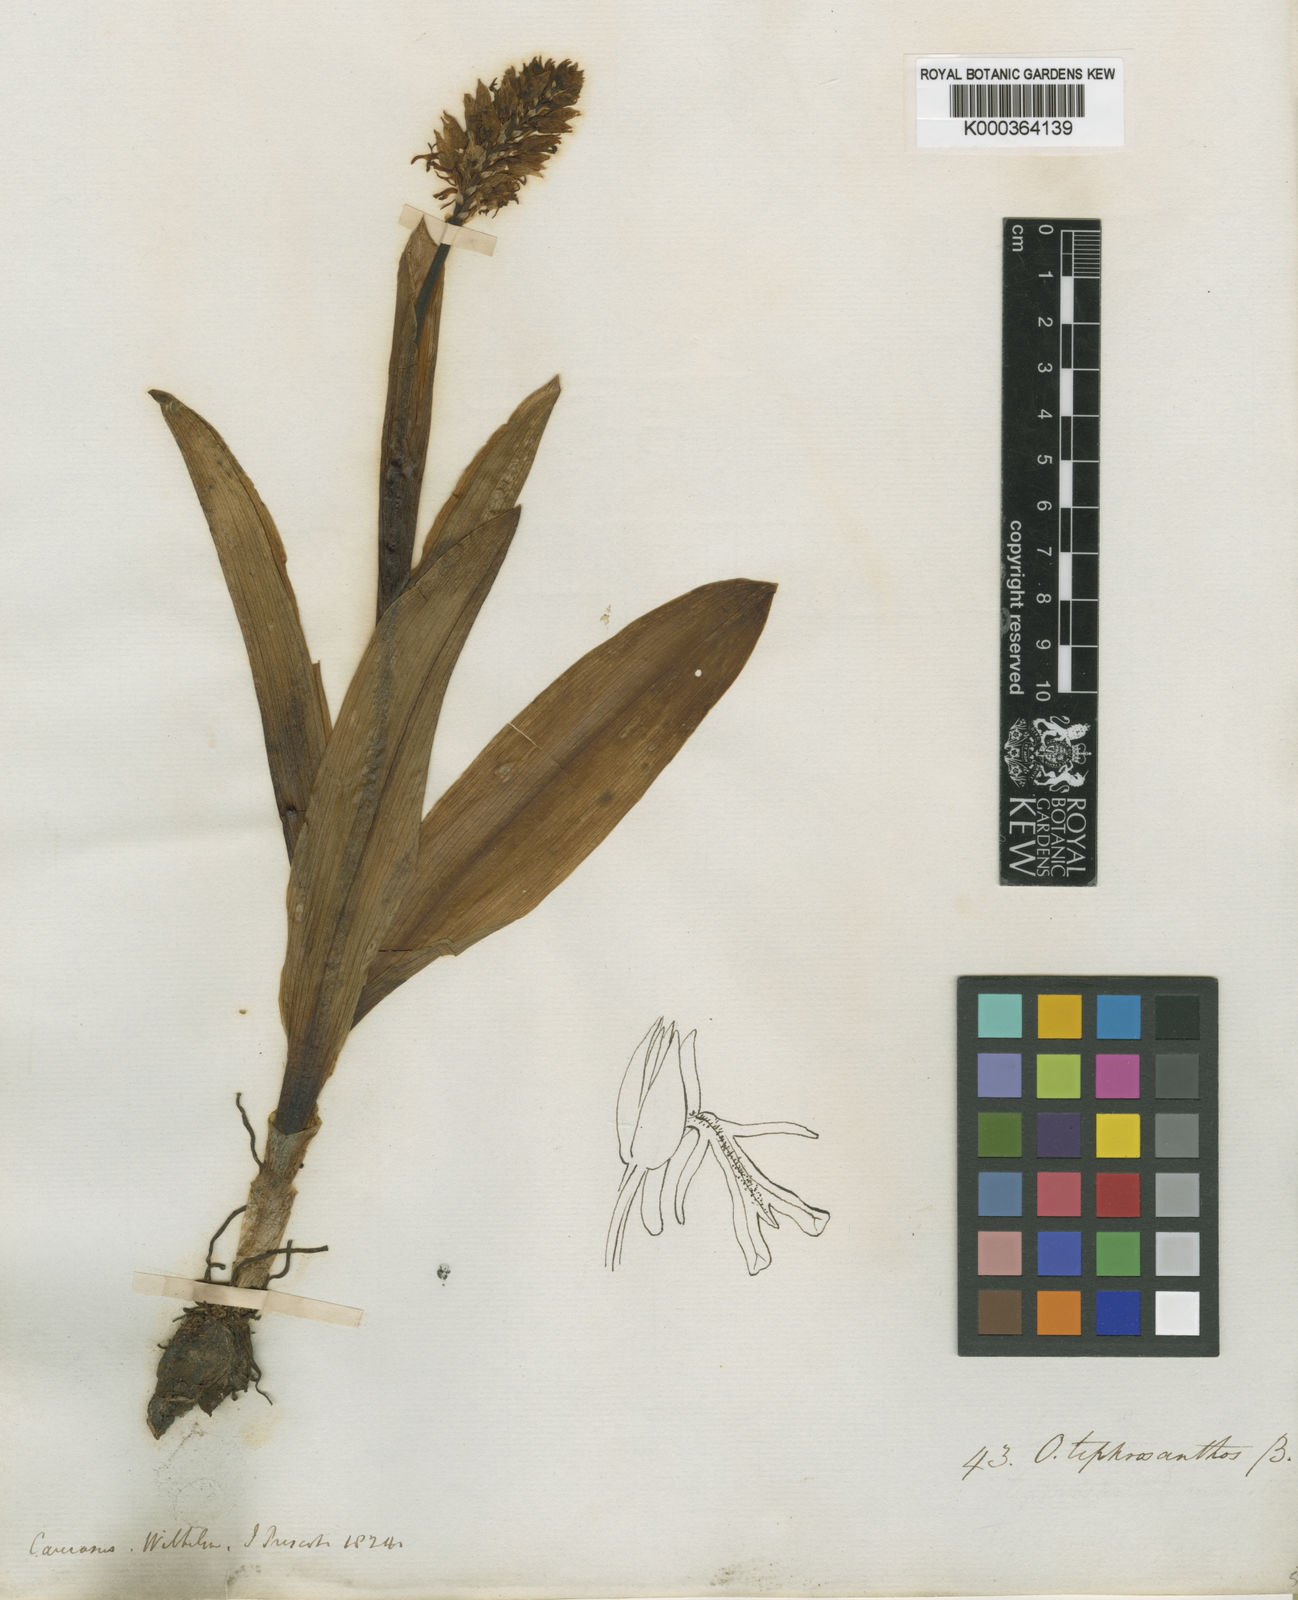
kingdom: Plantae
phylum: Tracheophyta
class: Liliopsida
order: Asparagales
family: Orchidaceae
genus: Orchis
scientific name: Orchis simia
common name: Monkey orchid
